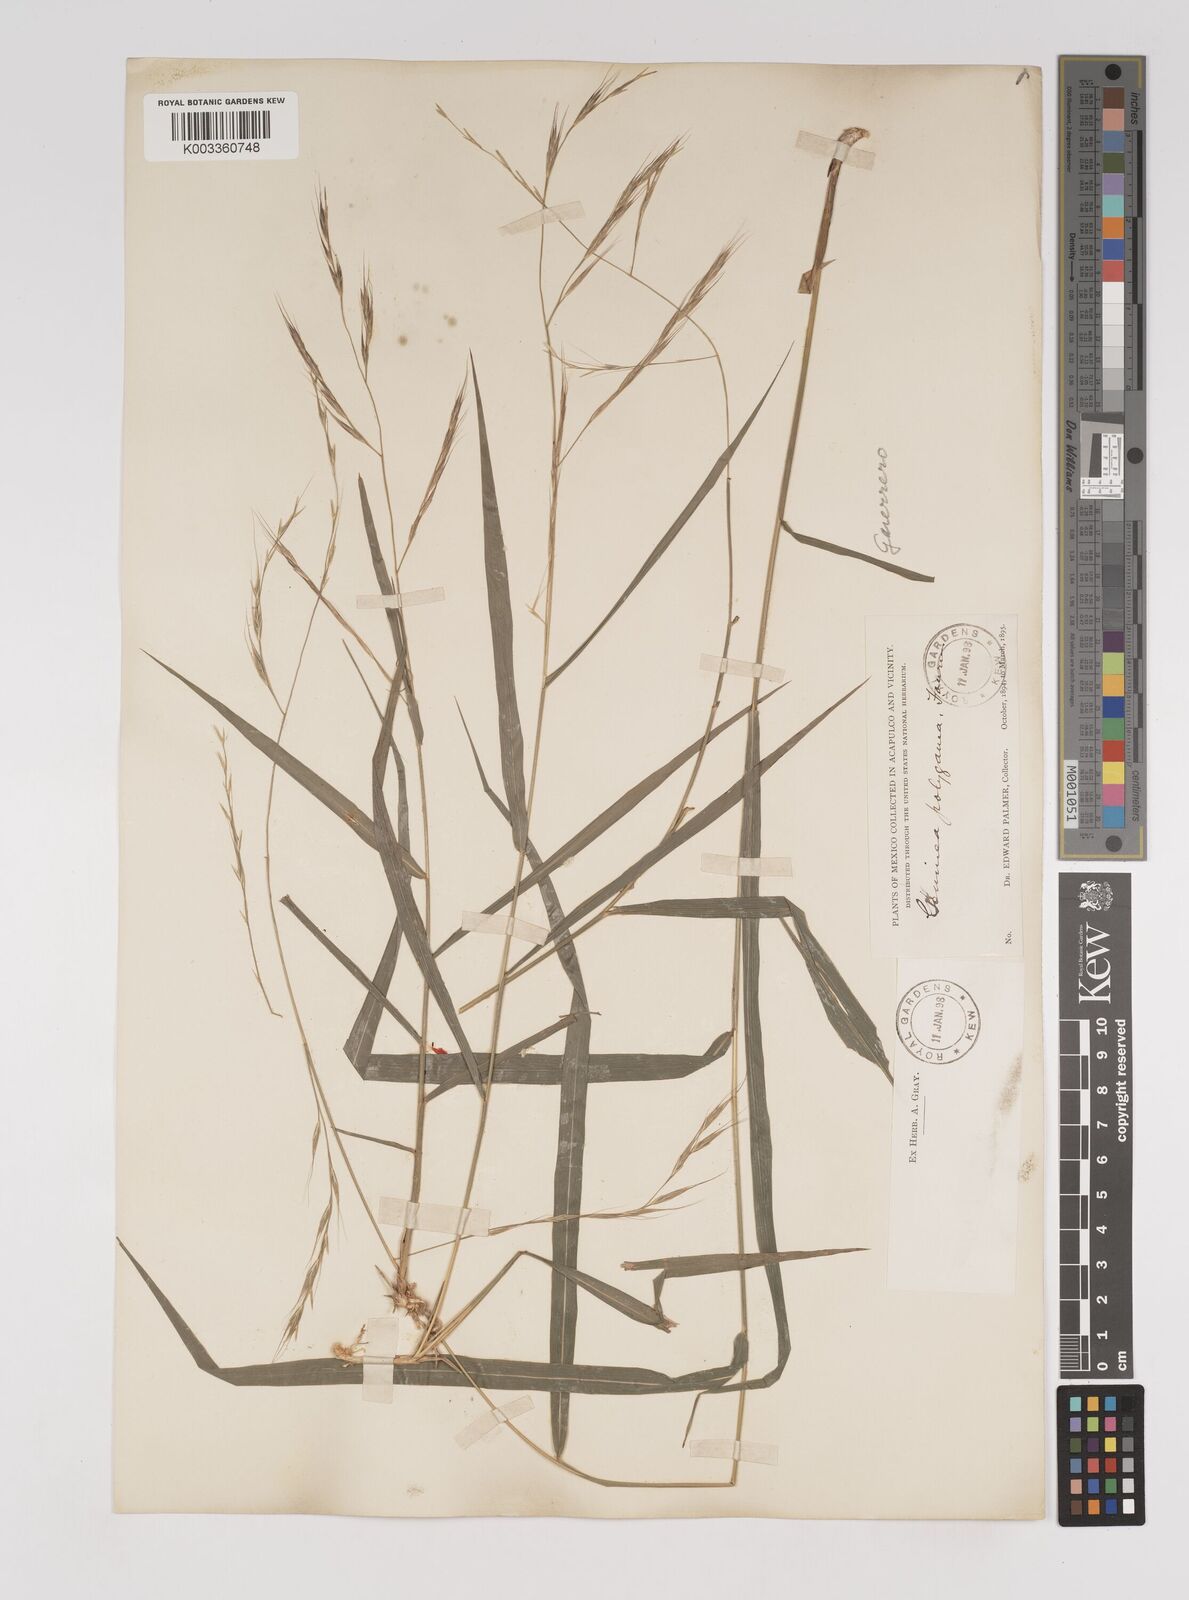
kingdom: Plantae
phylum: Tracheophyta
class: Liliopsida
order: Poales
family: Poaceae
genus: Gouinia
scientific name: Gouinia virgata
